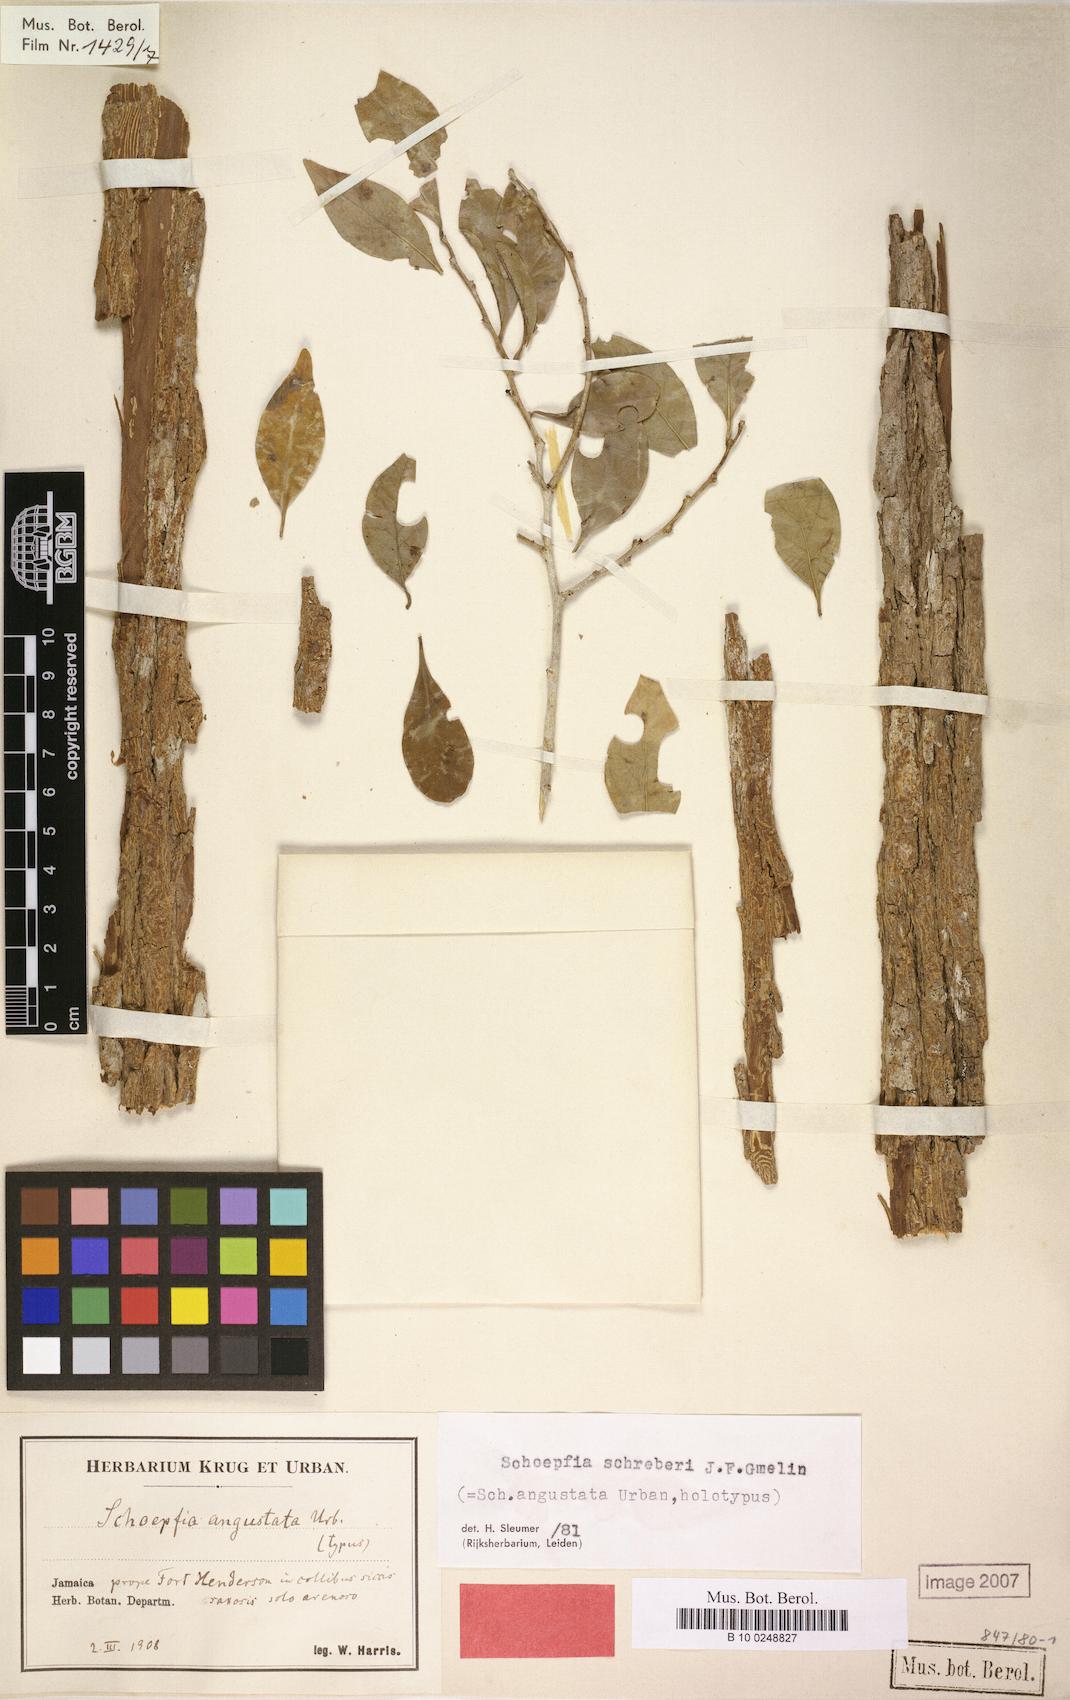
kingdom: Plantae
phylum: Tracheophyta
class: Magnoliopsida
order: Santalales
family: Schoepfiaceae
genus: Schoepfia
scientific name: Schoepfia schreberi
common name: Gulf graytwig
